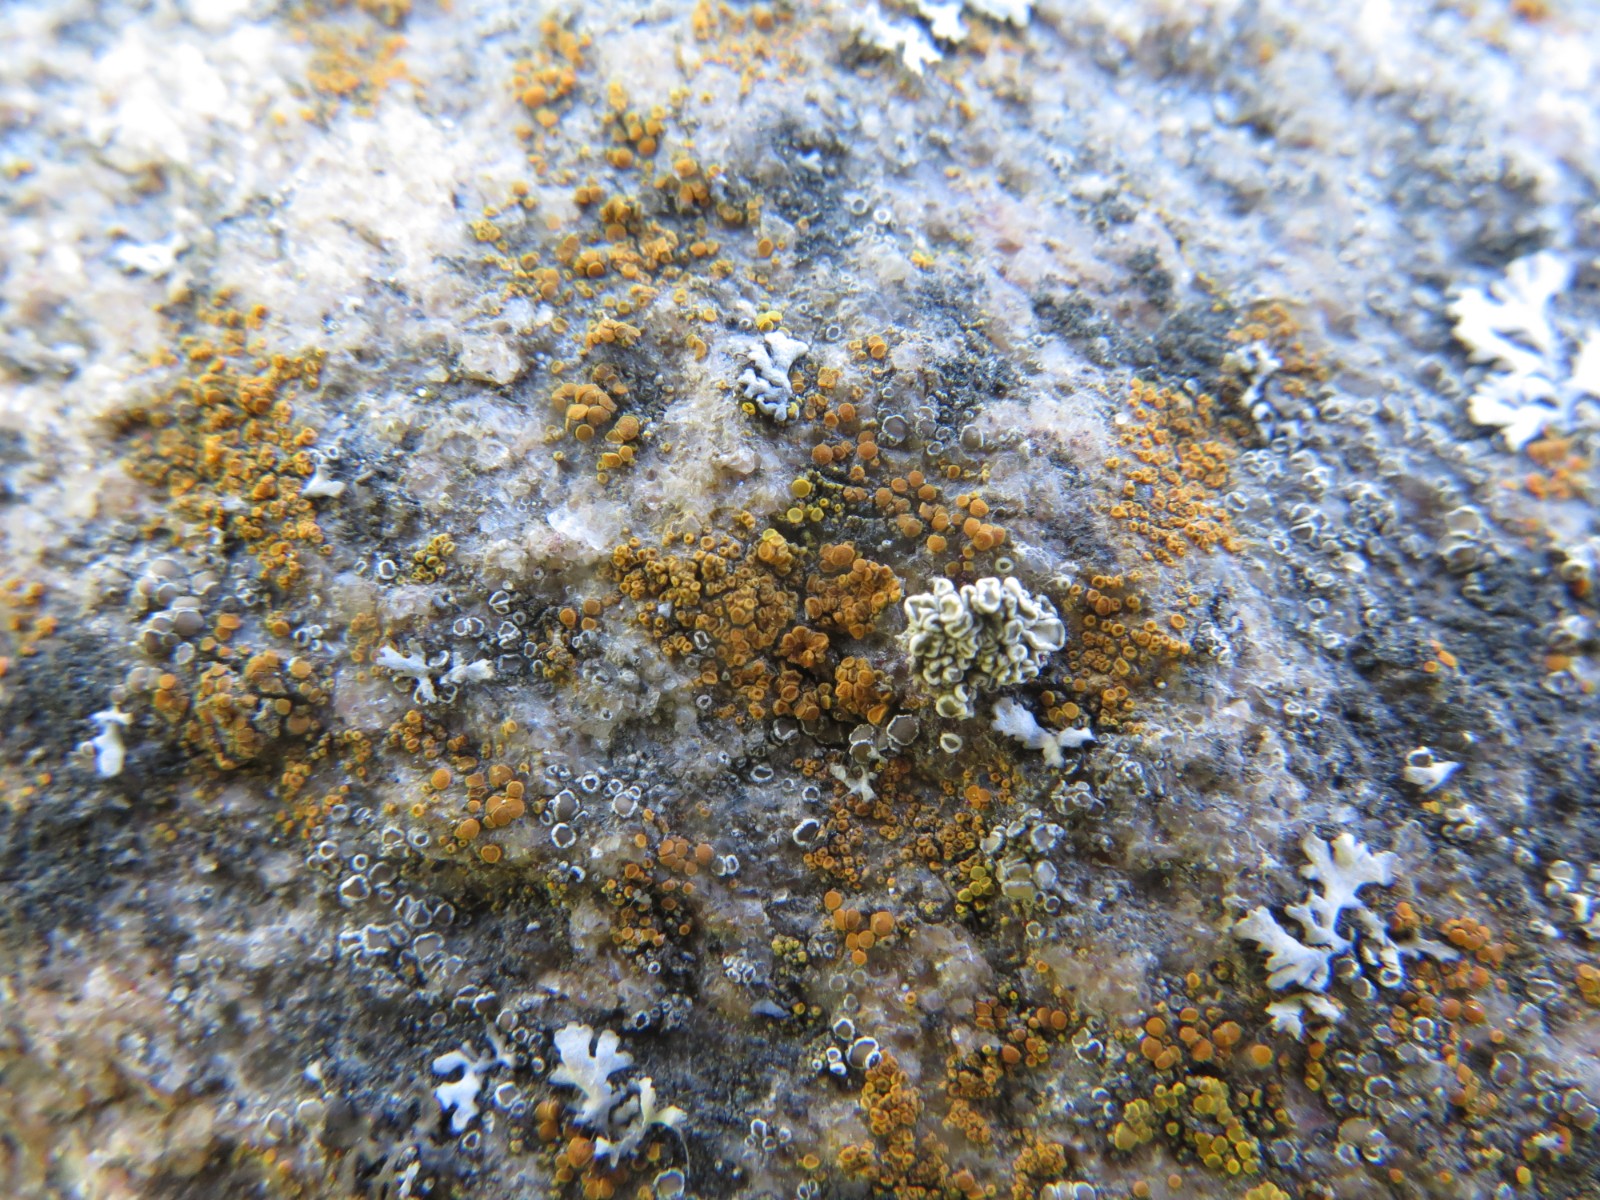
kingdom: Fungi
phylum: Ascomycota
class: Lecanoromycetes
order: Lecanorales
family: Lecanoraceae
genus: Polyozosia
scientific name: Polyozosia dispersa
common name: spredt kantskivelav
